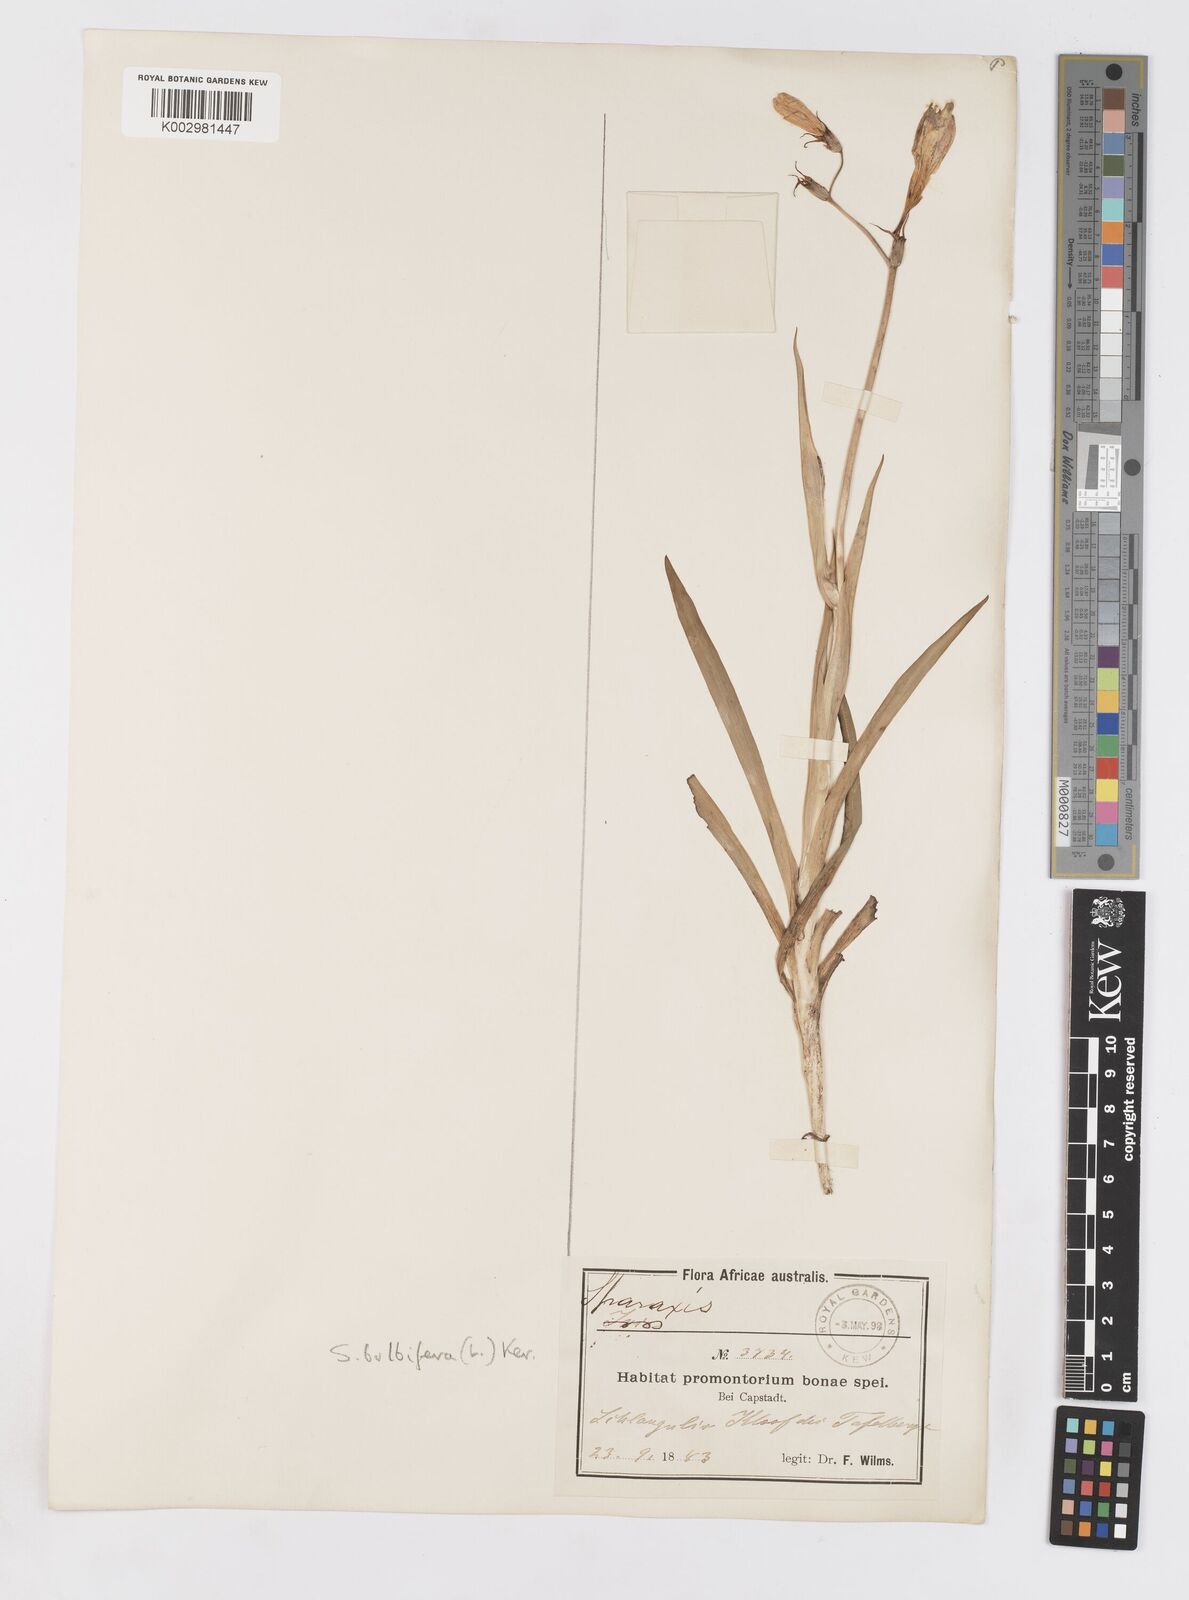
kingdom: Plantae
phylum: Tracheophyta
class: Liliopsida
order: Asparagales
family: Iridaceae
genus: Sparaxis
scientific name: Sparaxis bulbifera
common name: Harlequin-flower
